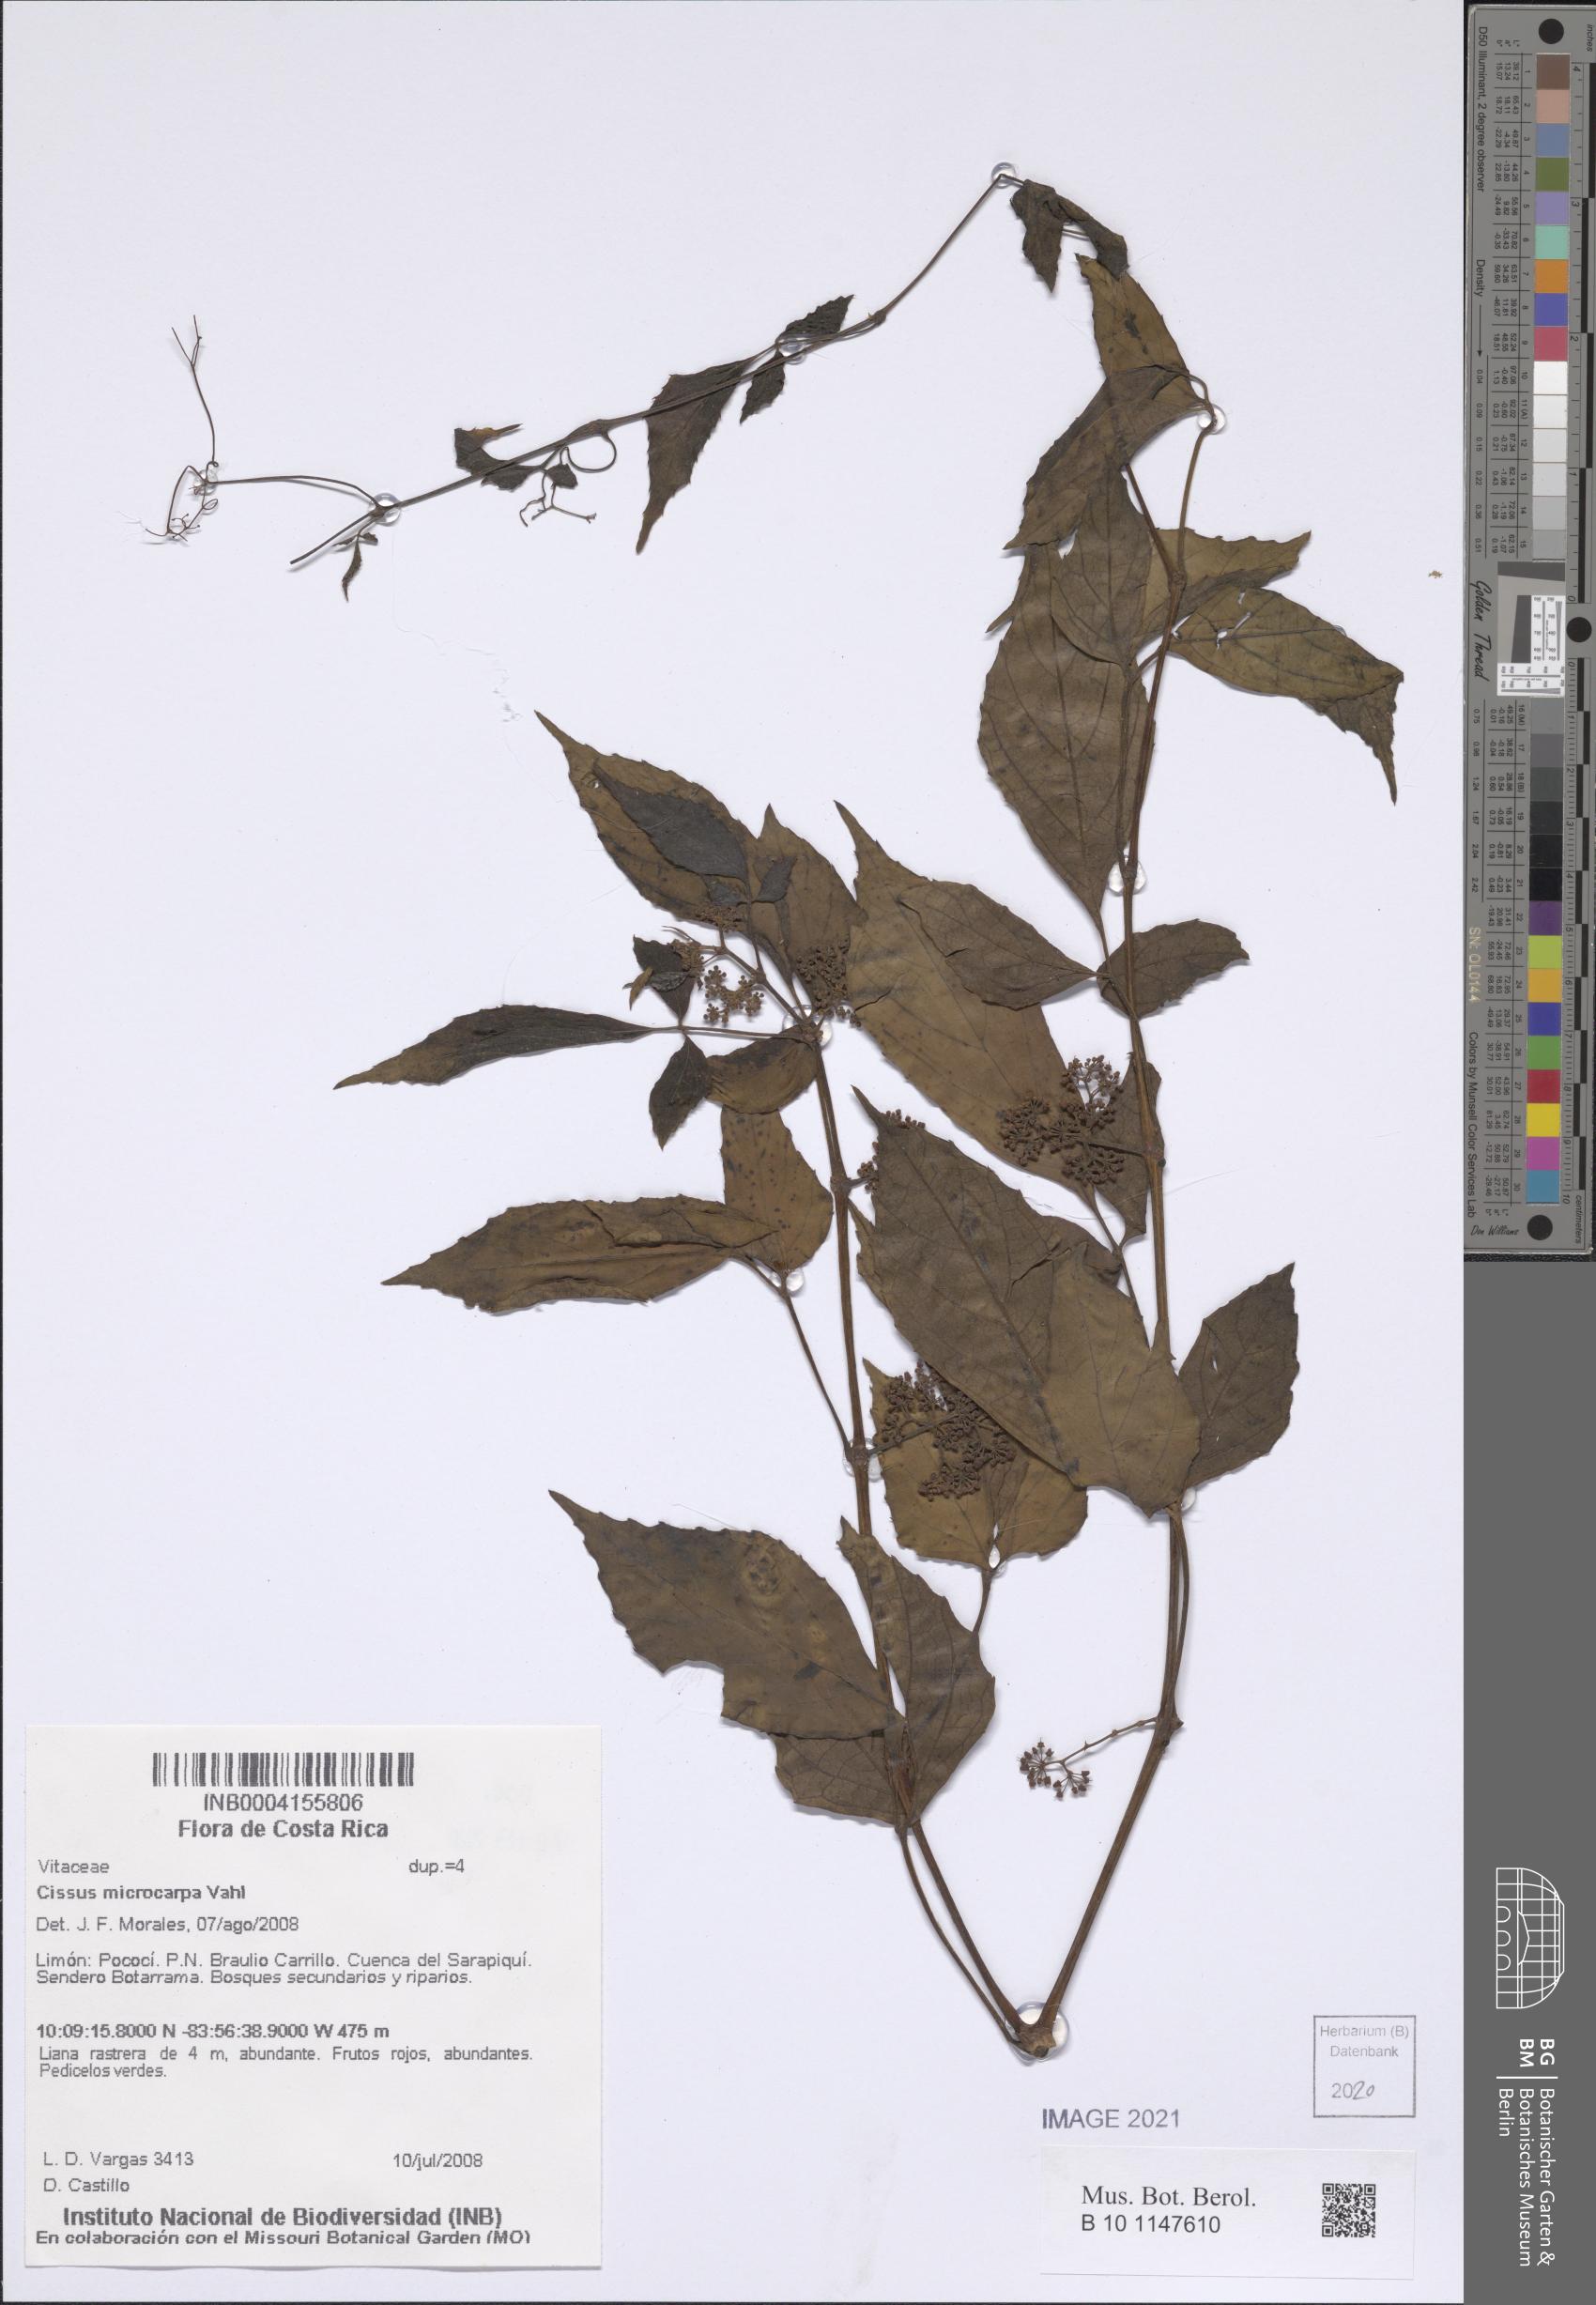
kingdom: Plantae
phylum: Tracheophyta
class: Magnoliopsida
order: Vitales
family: Vitaceae
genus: Cissus
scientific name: Cissus microcarpa
